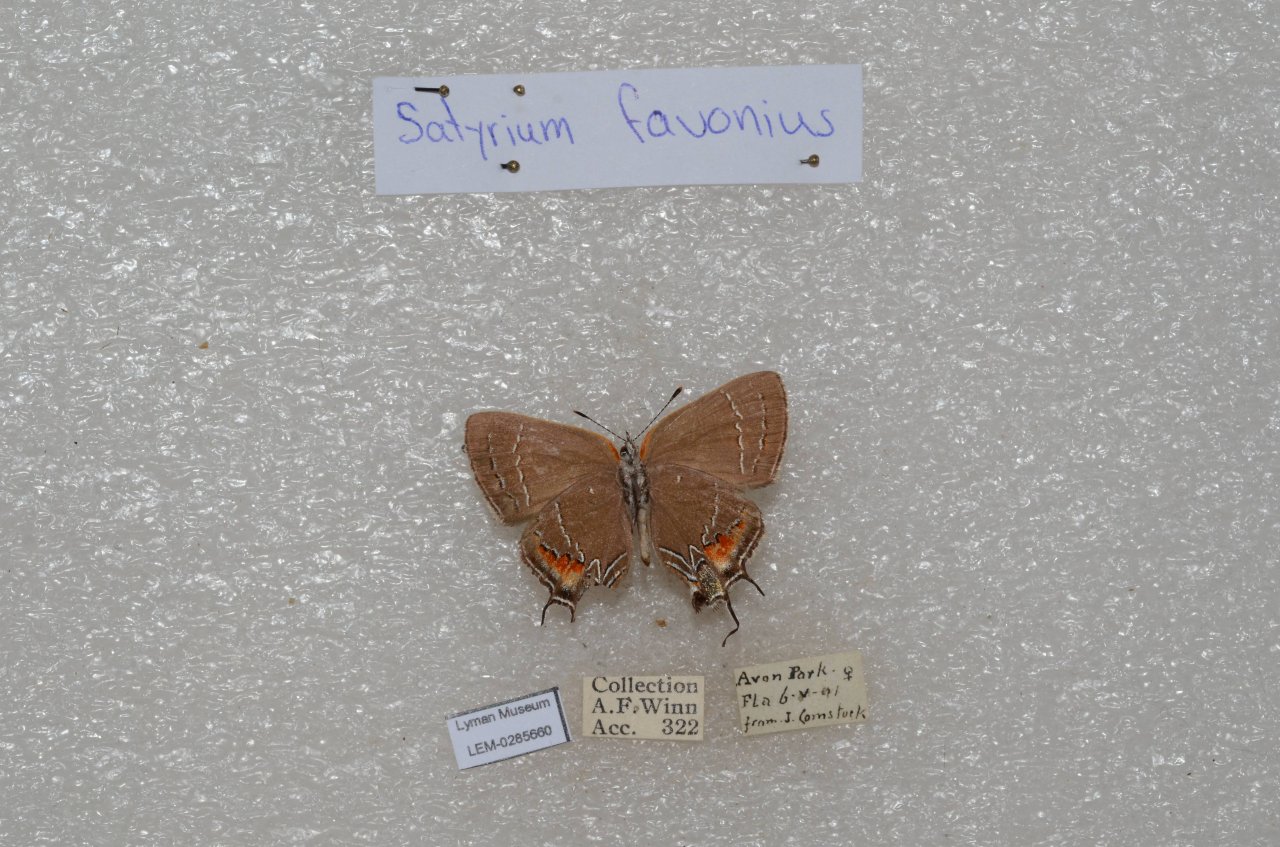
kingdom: Animalia
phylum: Arthropoda
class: Insecta
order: Lepidoptera
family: Lycaenidae
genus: Fixsenia
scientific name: Fixsenia favonius
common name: Oak Hairstreak
